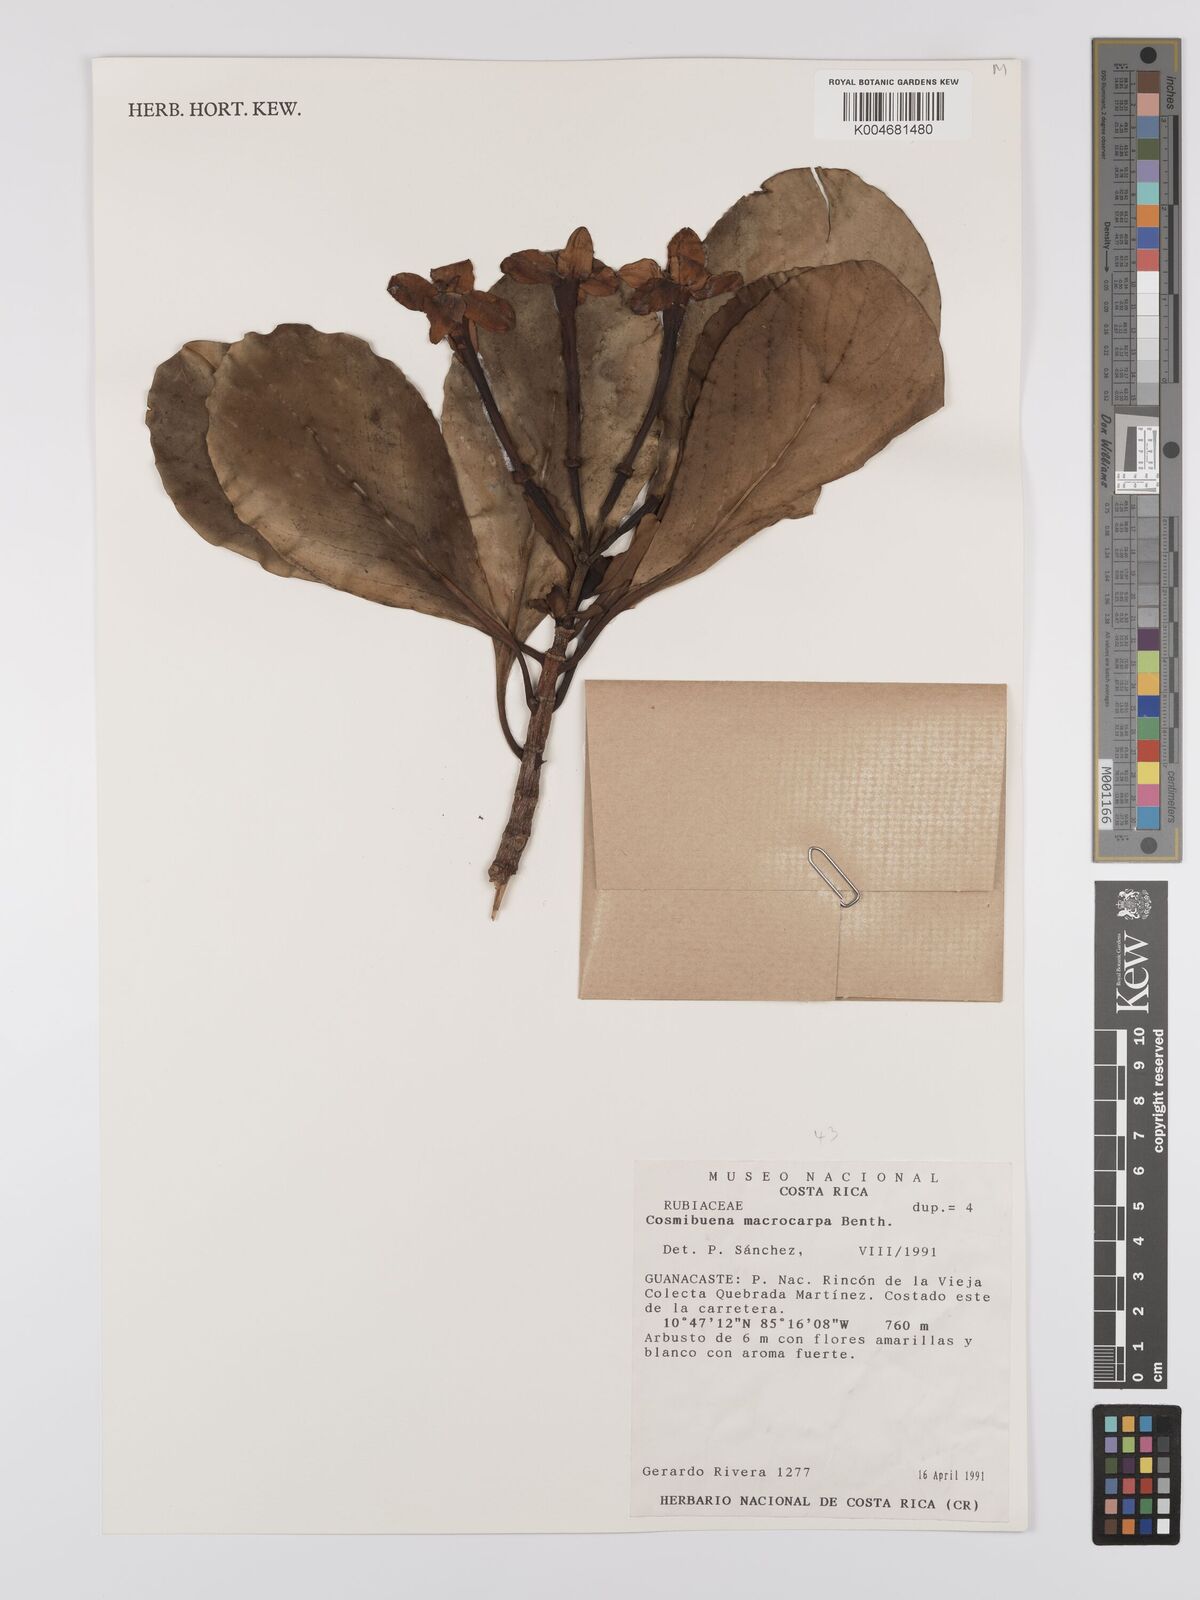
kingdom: Plantae
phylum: Tracheophyta
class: Magnoliopsida
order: Gentianales
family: Rubiaceae
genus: Cosmibuena
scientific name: Cosmibuena macrocarpa
